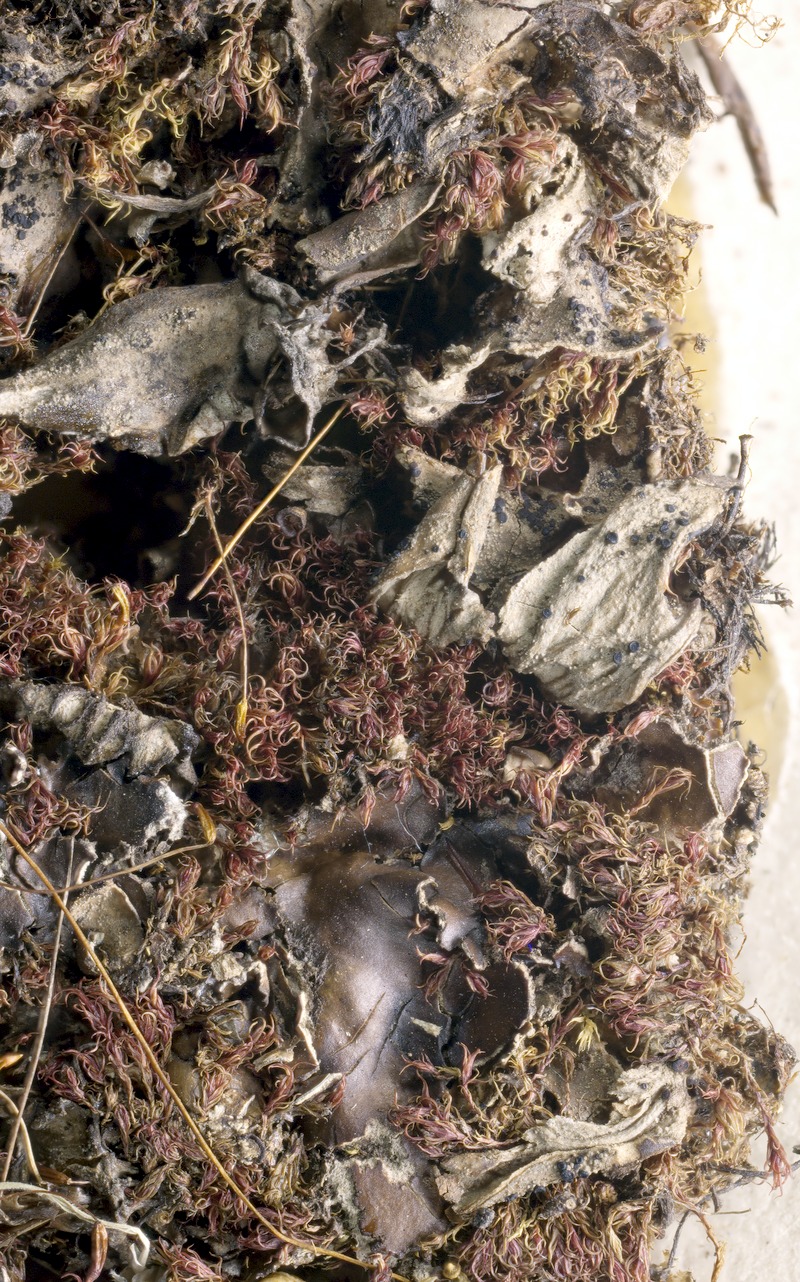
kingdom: Fungi
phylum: Ascomycota
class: Lecanoromycetes
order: Lecanorales
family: Byssolomataceae
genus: Scutula
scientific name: Scutula dedicata
